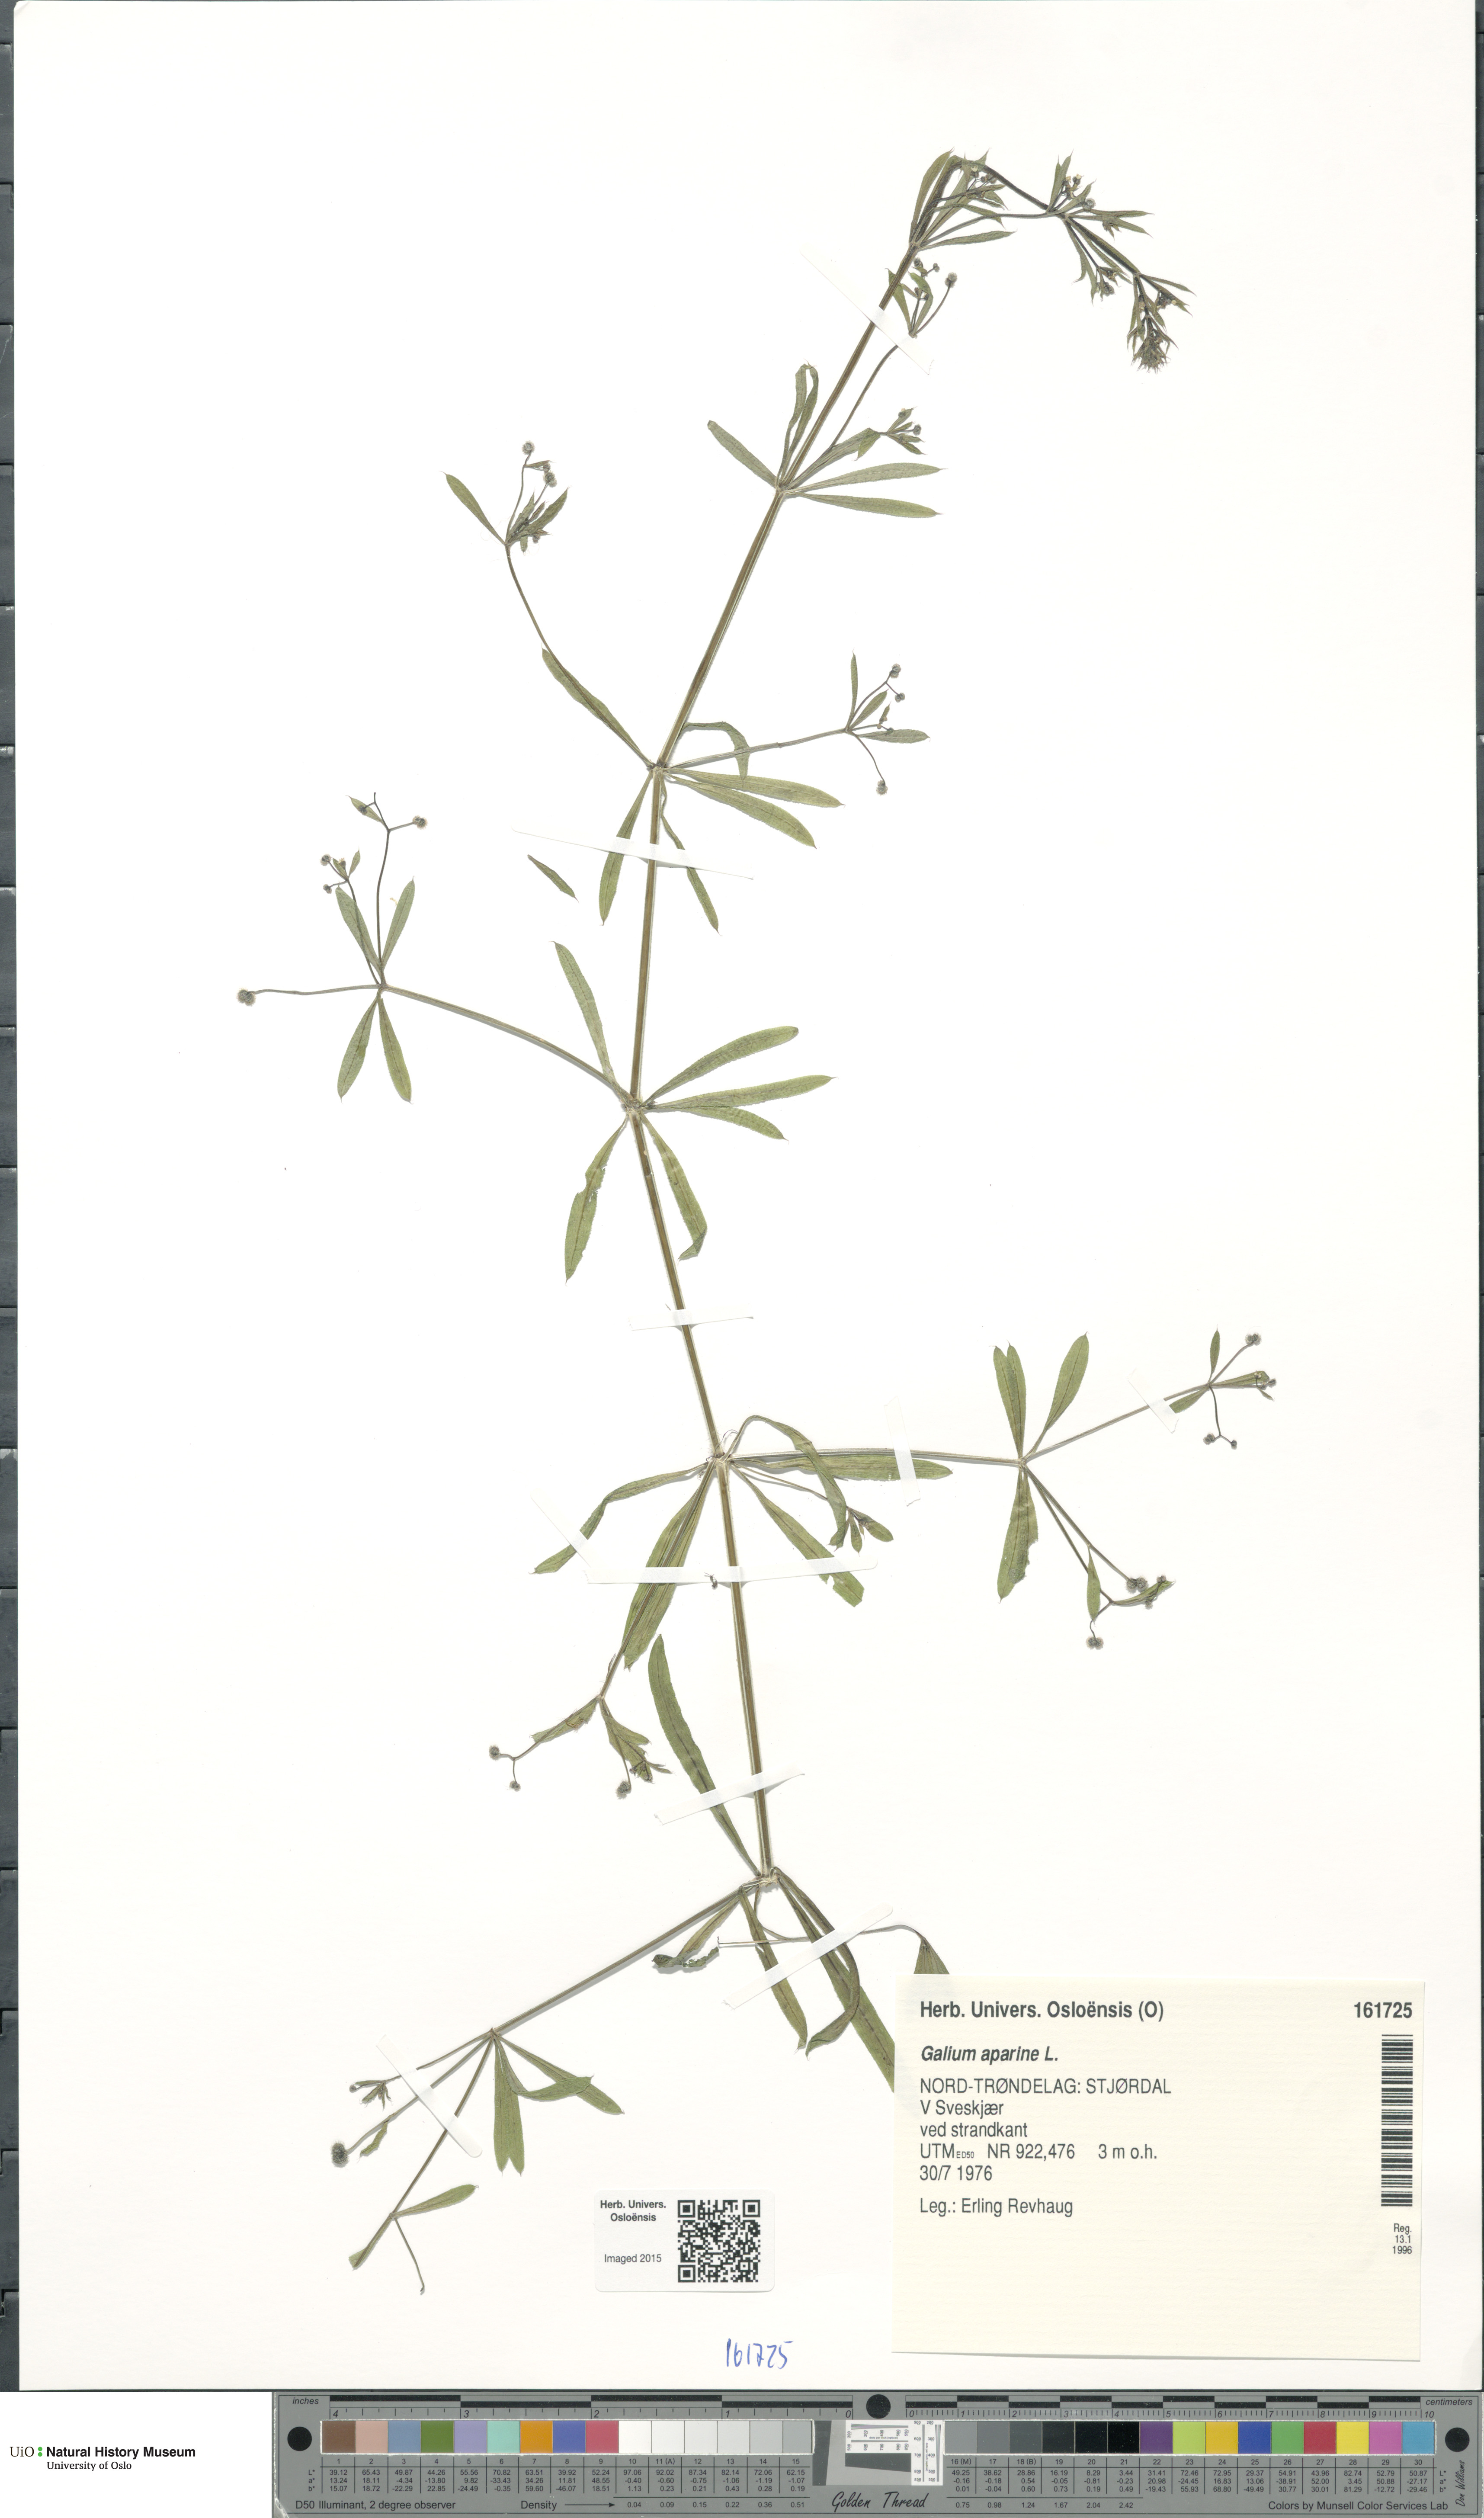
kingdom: Plantae
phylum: Tracheophyta
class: Magnoliopsida
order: Gentianales
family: Rubiaceae
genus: Galium
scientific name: Galium aparine
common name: Cleavers
